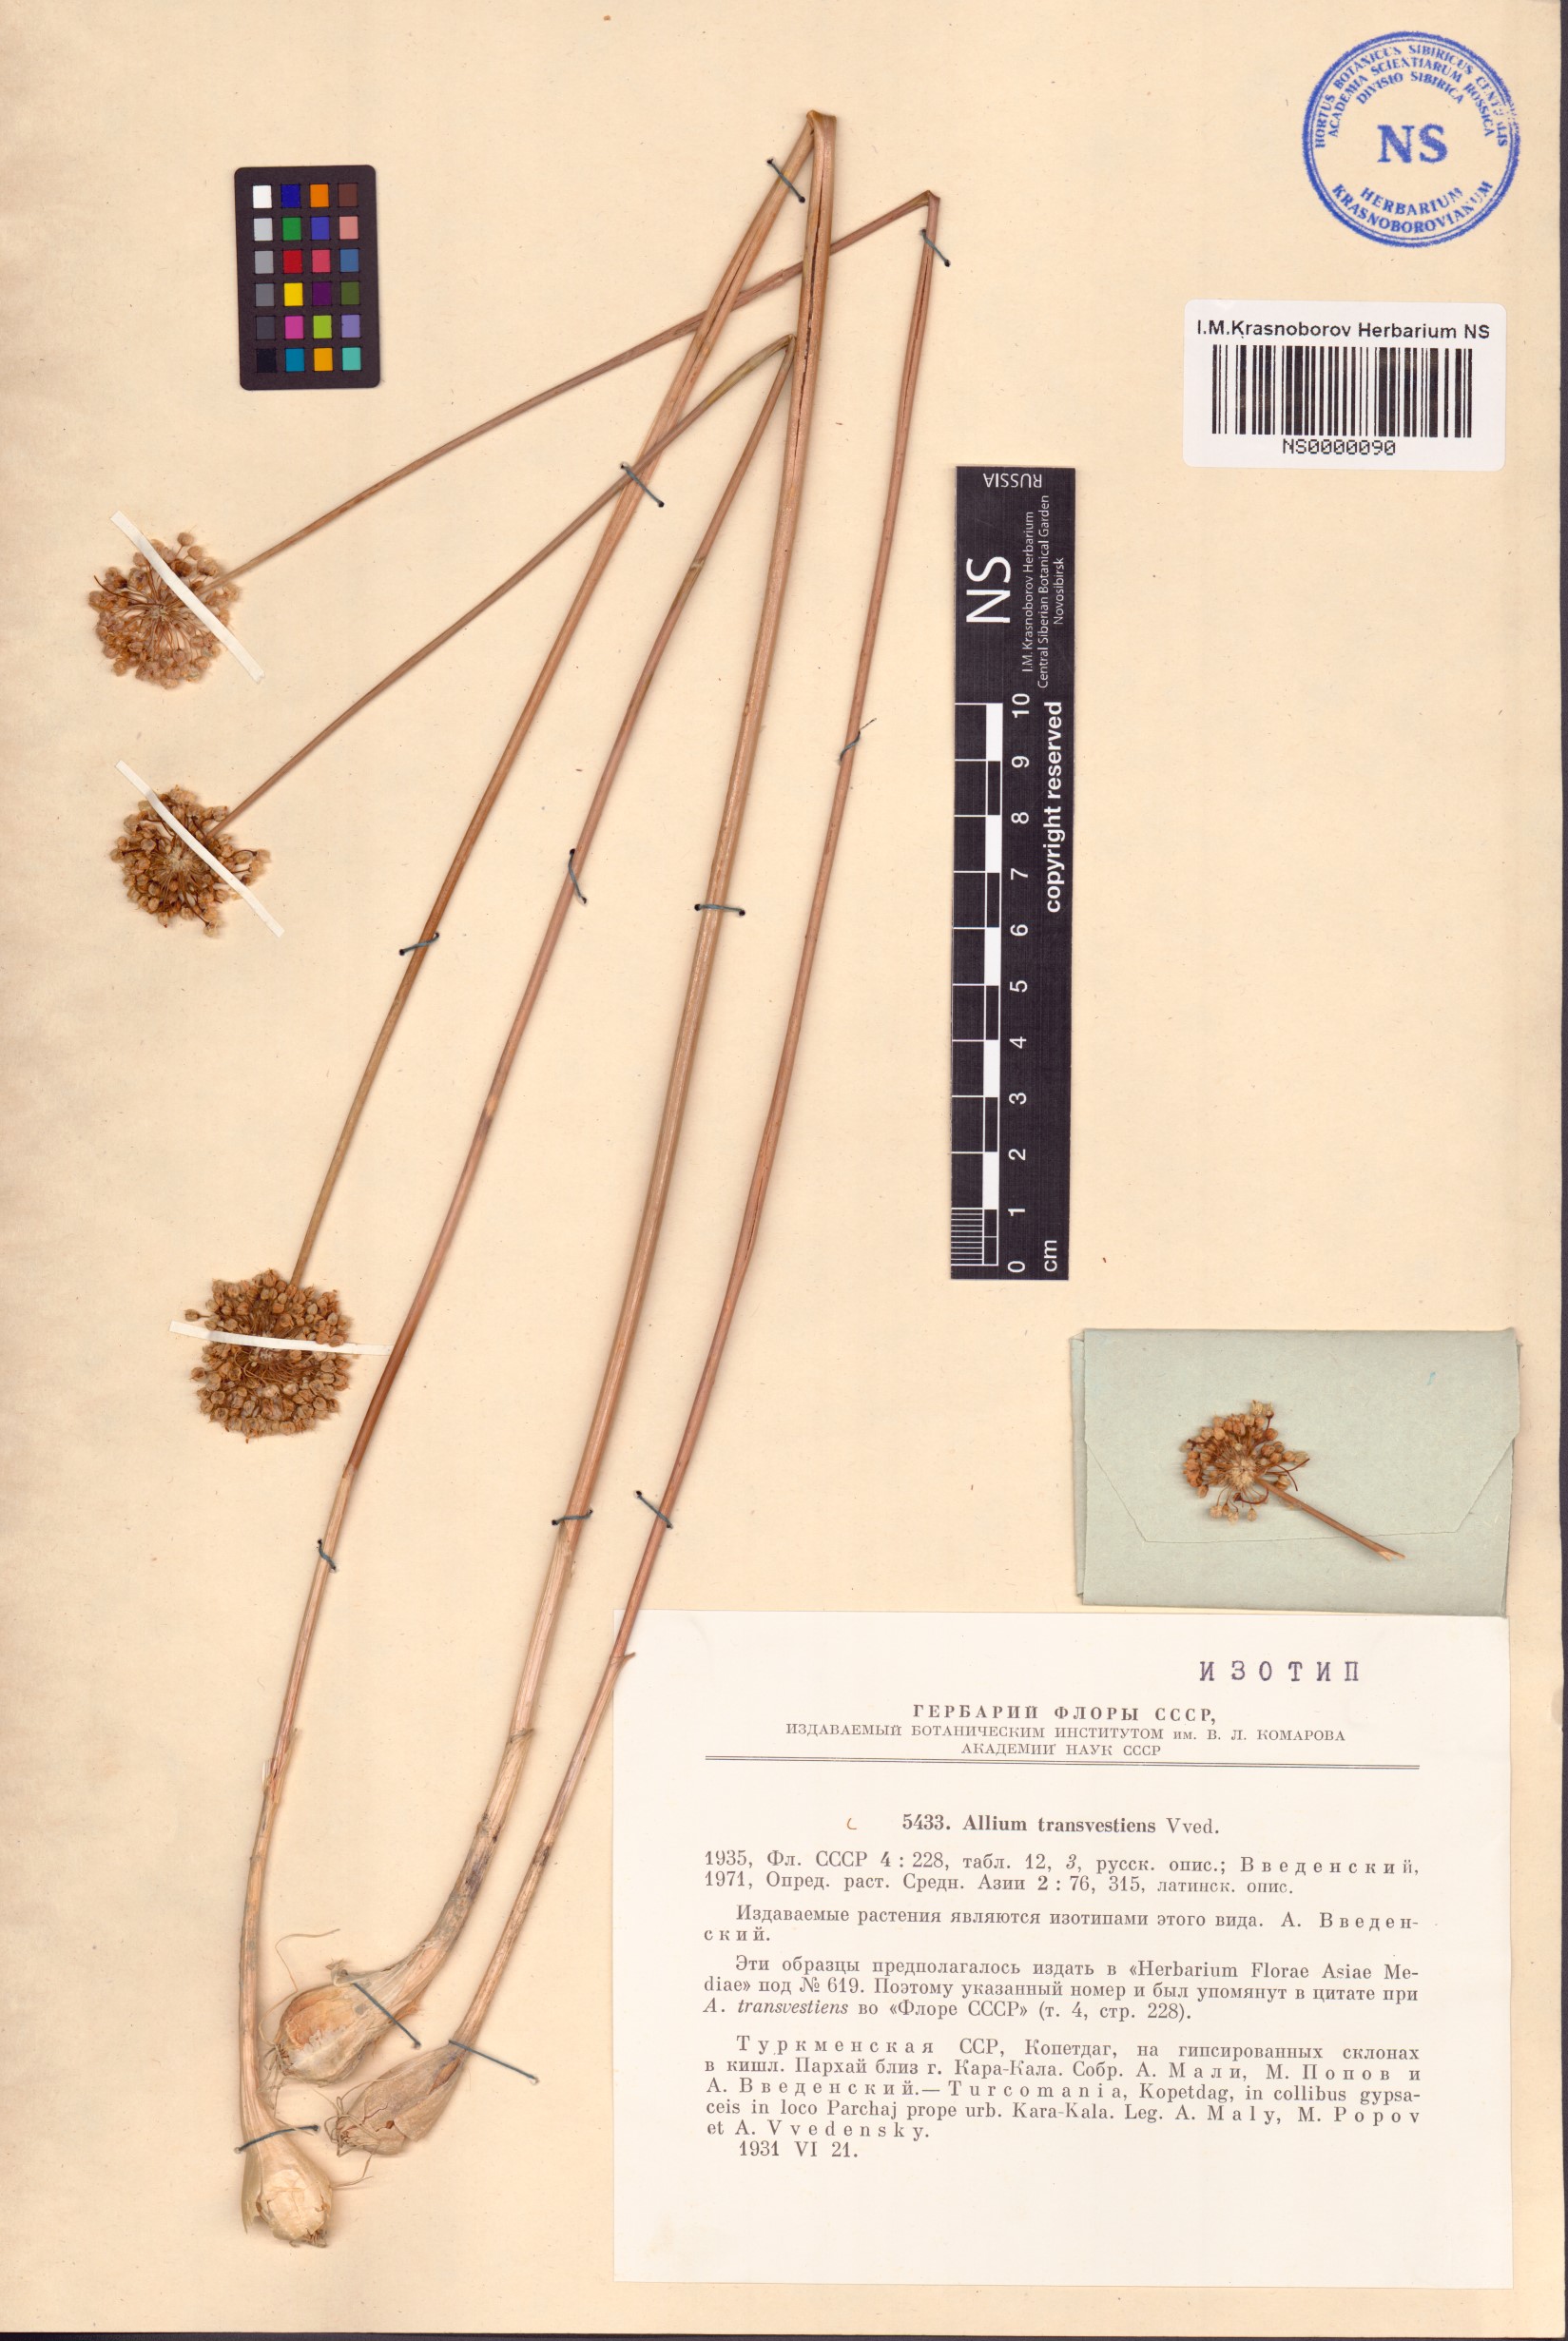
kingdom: Plantae
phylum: Tracheophyta
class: Liliopsida
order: Asparagales
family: Amaryllidaceae
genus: Allium
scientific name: Allium transvestiens
